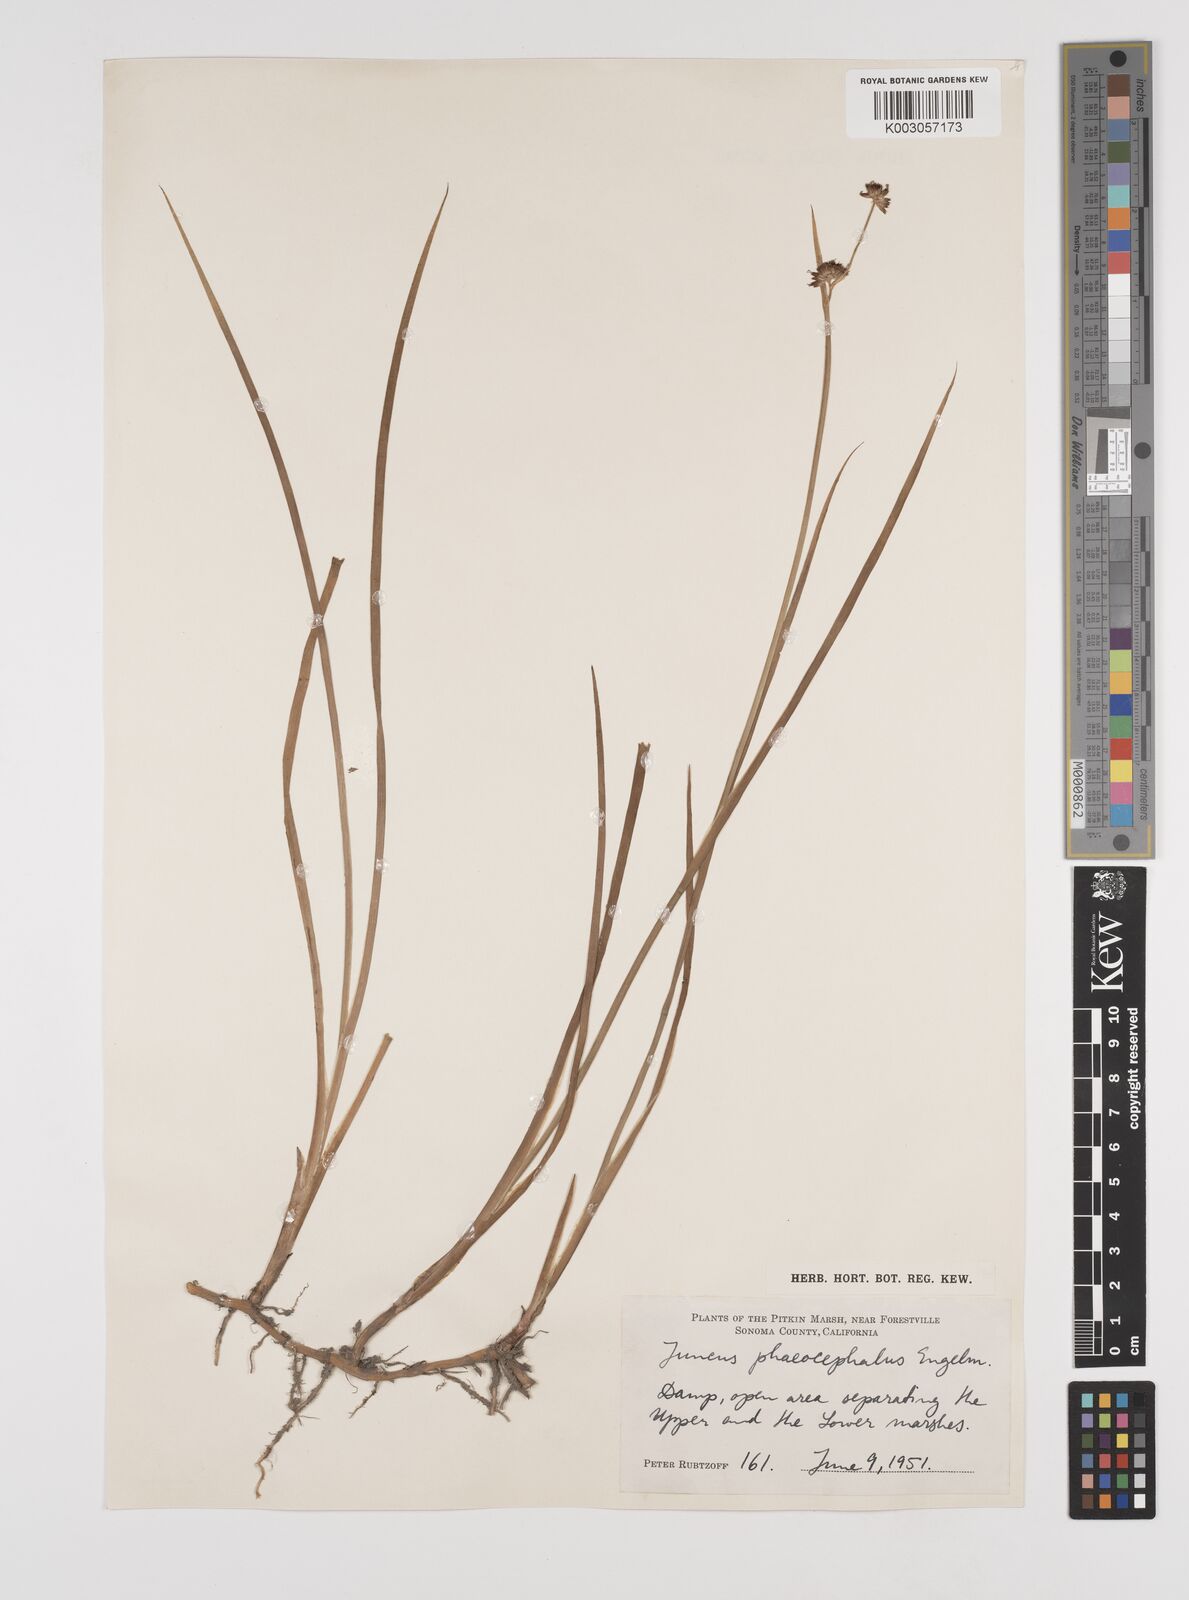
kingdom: Plantae
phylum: Tracheophyta
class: Liliopsida
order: Poales
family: Juncaceae
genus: Juncus
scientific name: Juncus phaeocephalus
